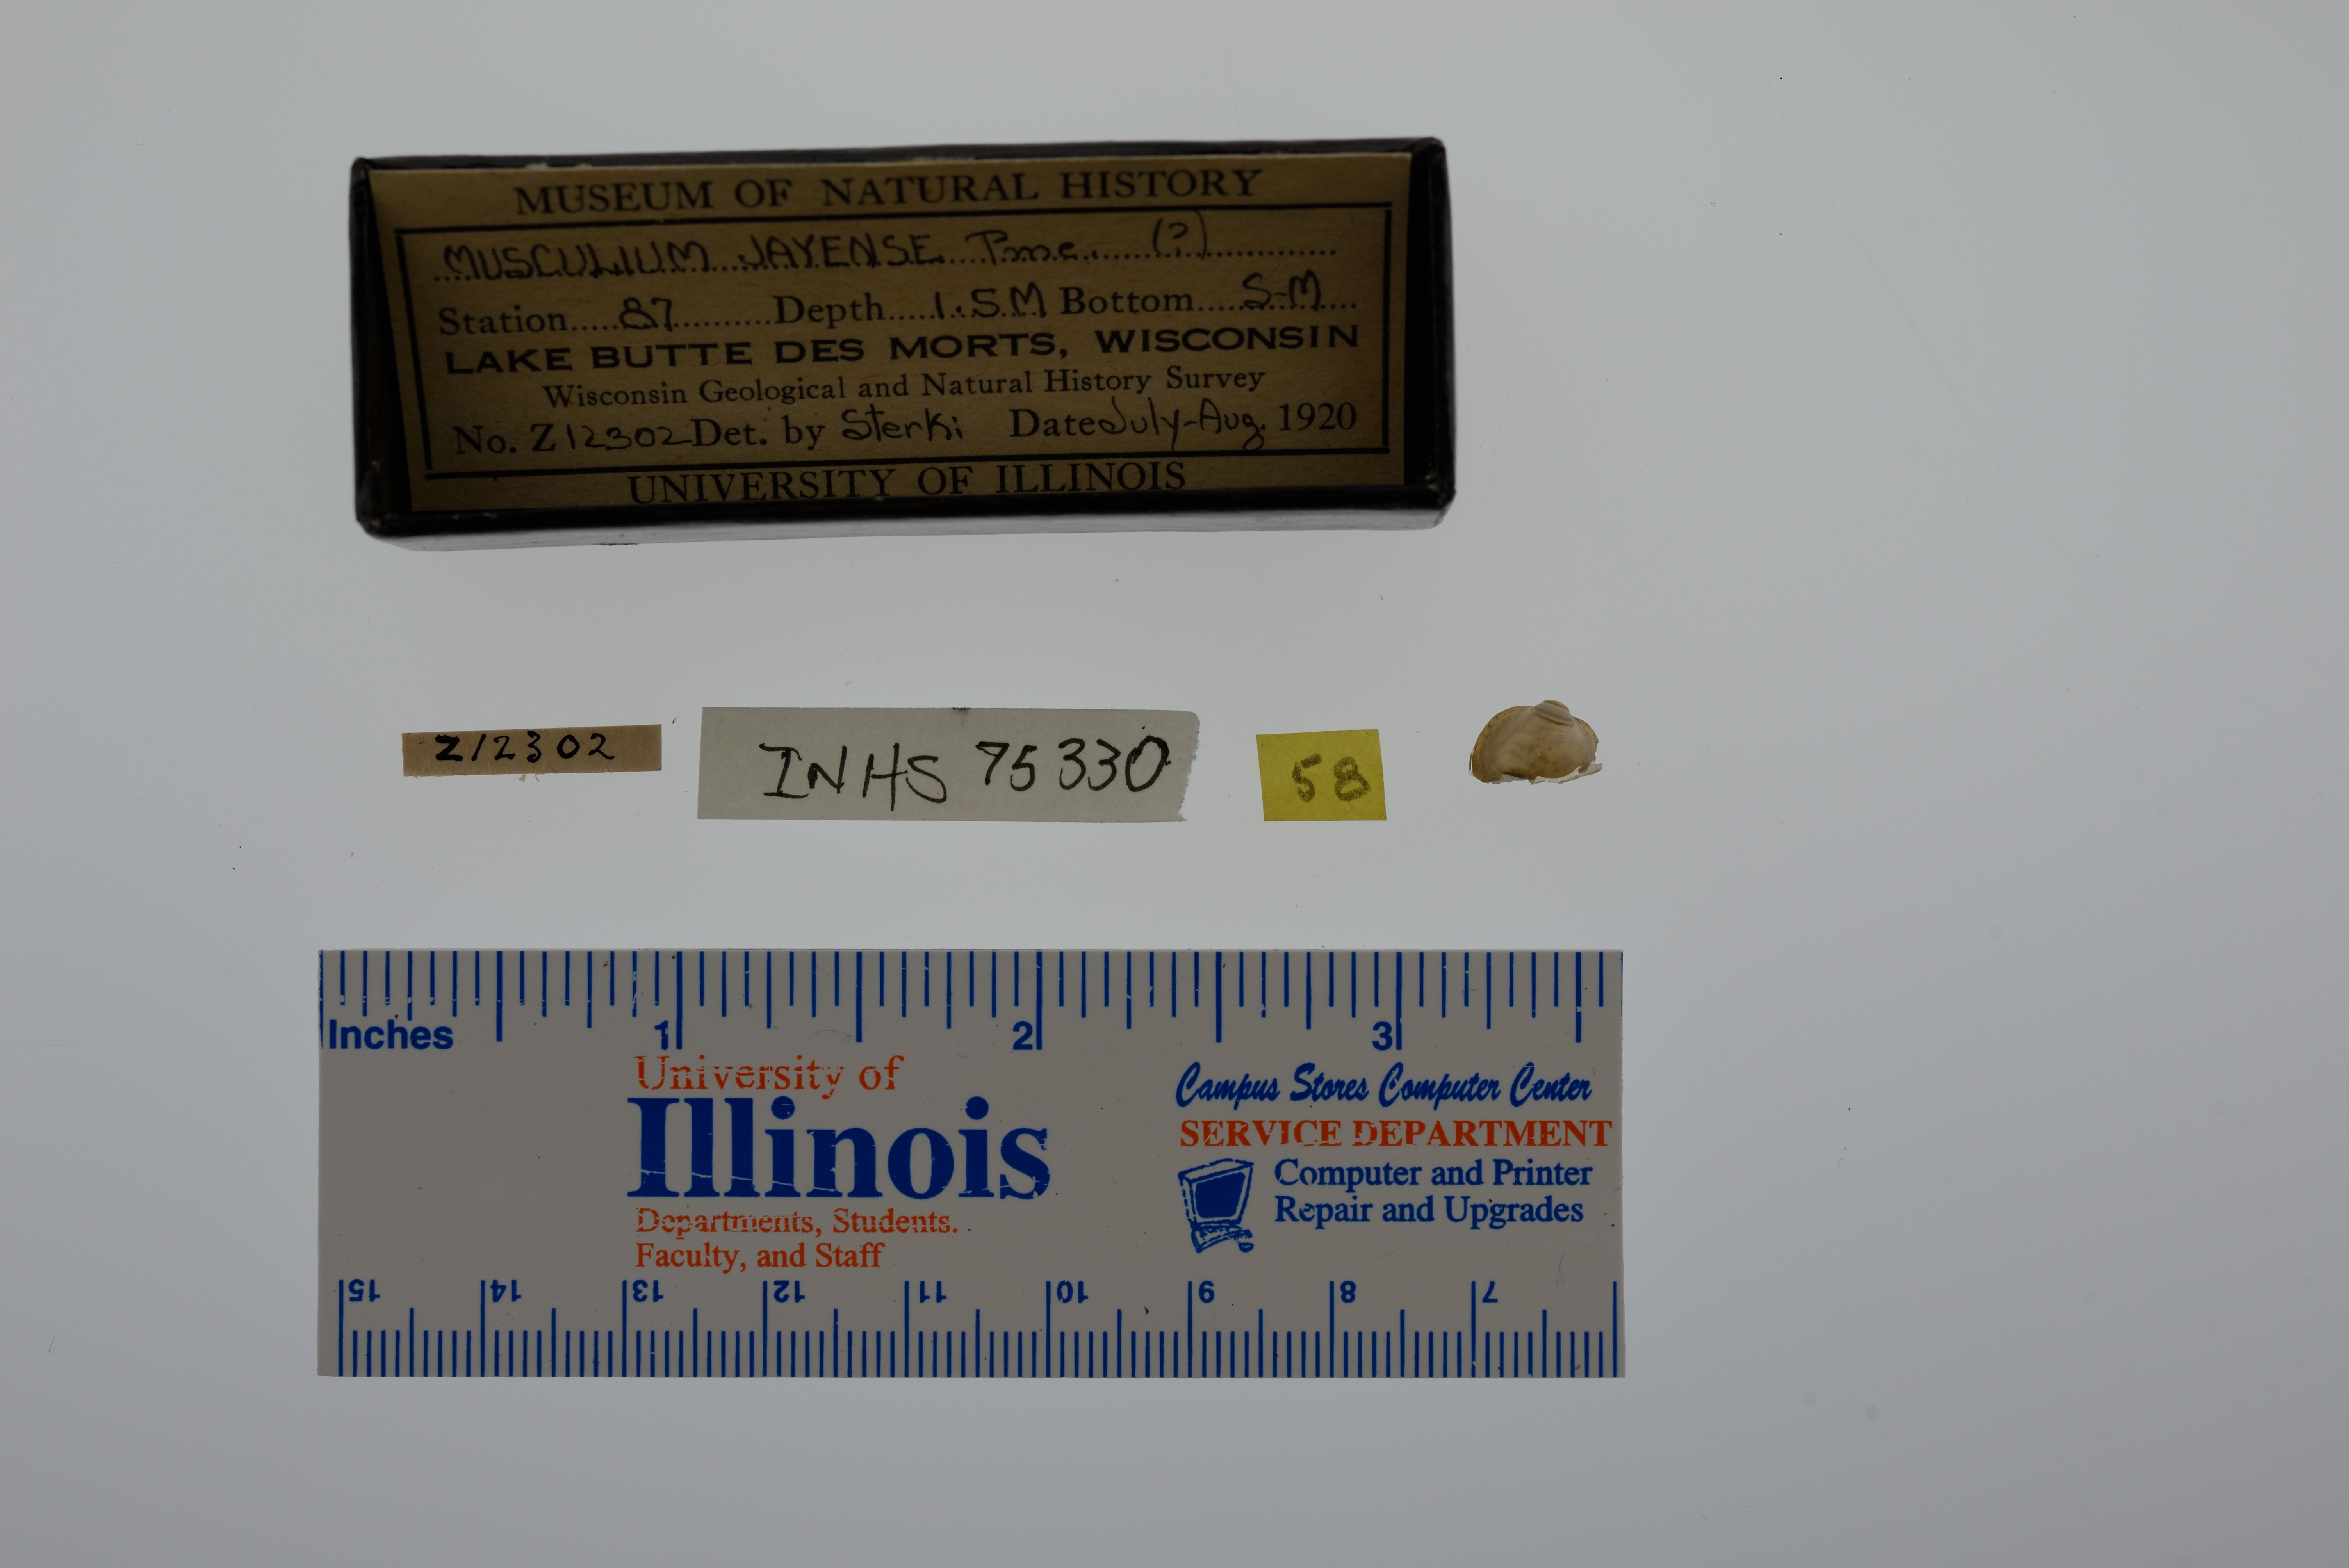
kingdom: Animalia
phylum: Mollusca
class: Bivalvia
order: Sphaeriida
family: Sphaeriidae
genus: Musculium
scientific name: Musculium lacustre
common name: Lake fingernailclam
